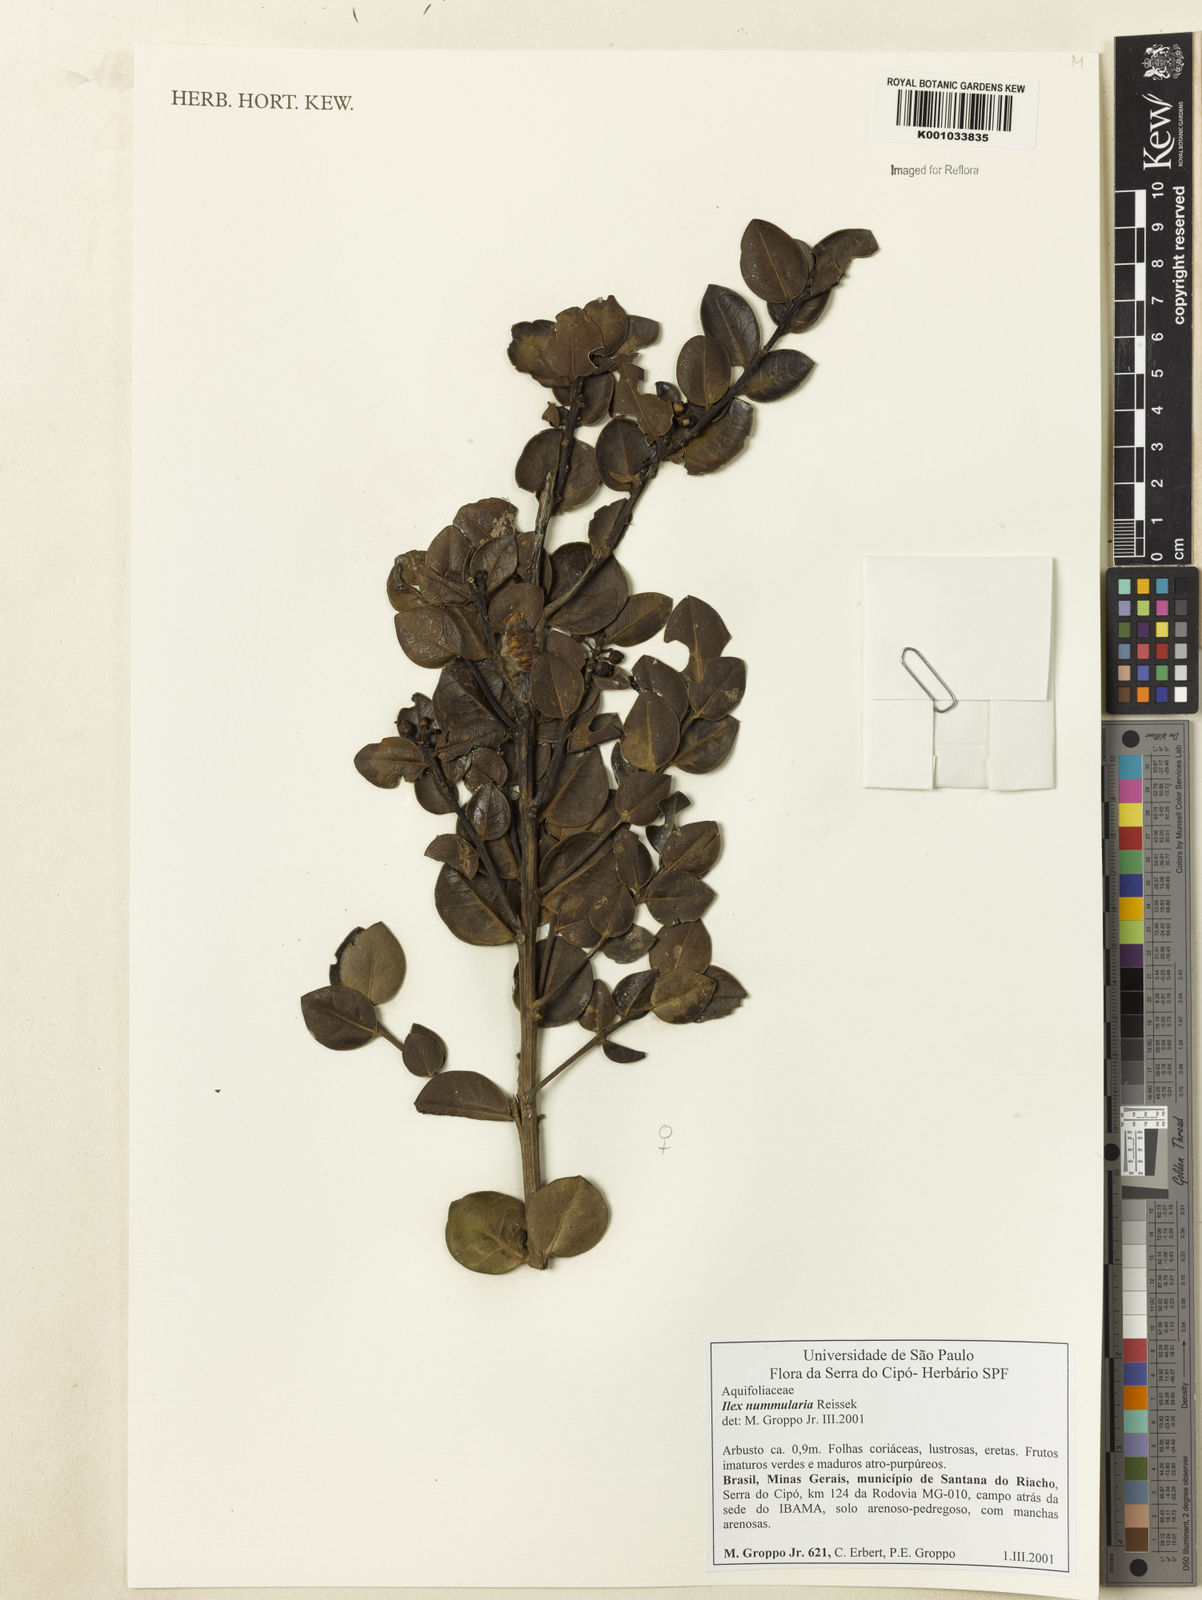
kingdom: Plantae
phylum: Tracheophyta
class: Magnoliopsida
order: Aquifoliales
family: Aquifoliaceae
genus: Ilex
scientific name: Ilex nummularia
